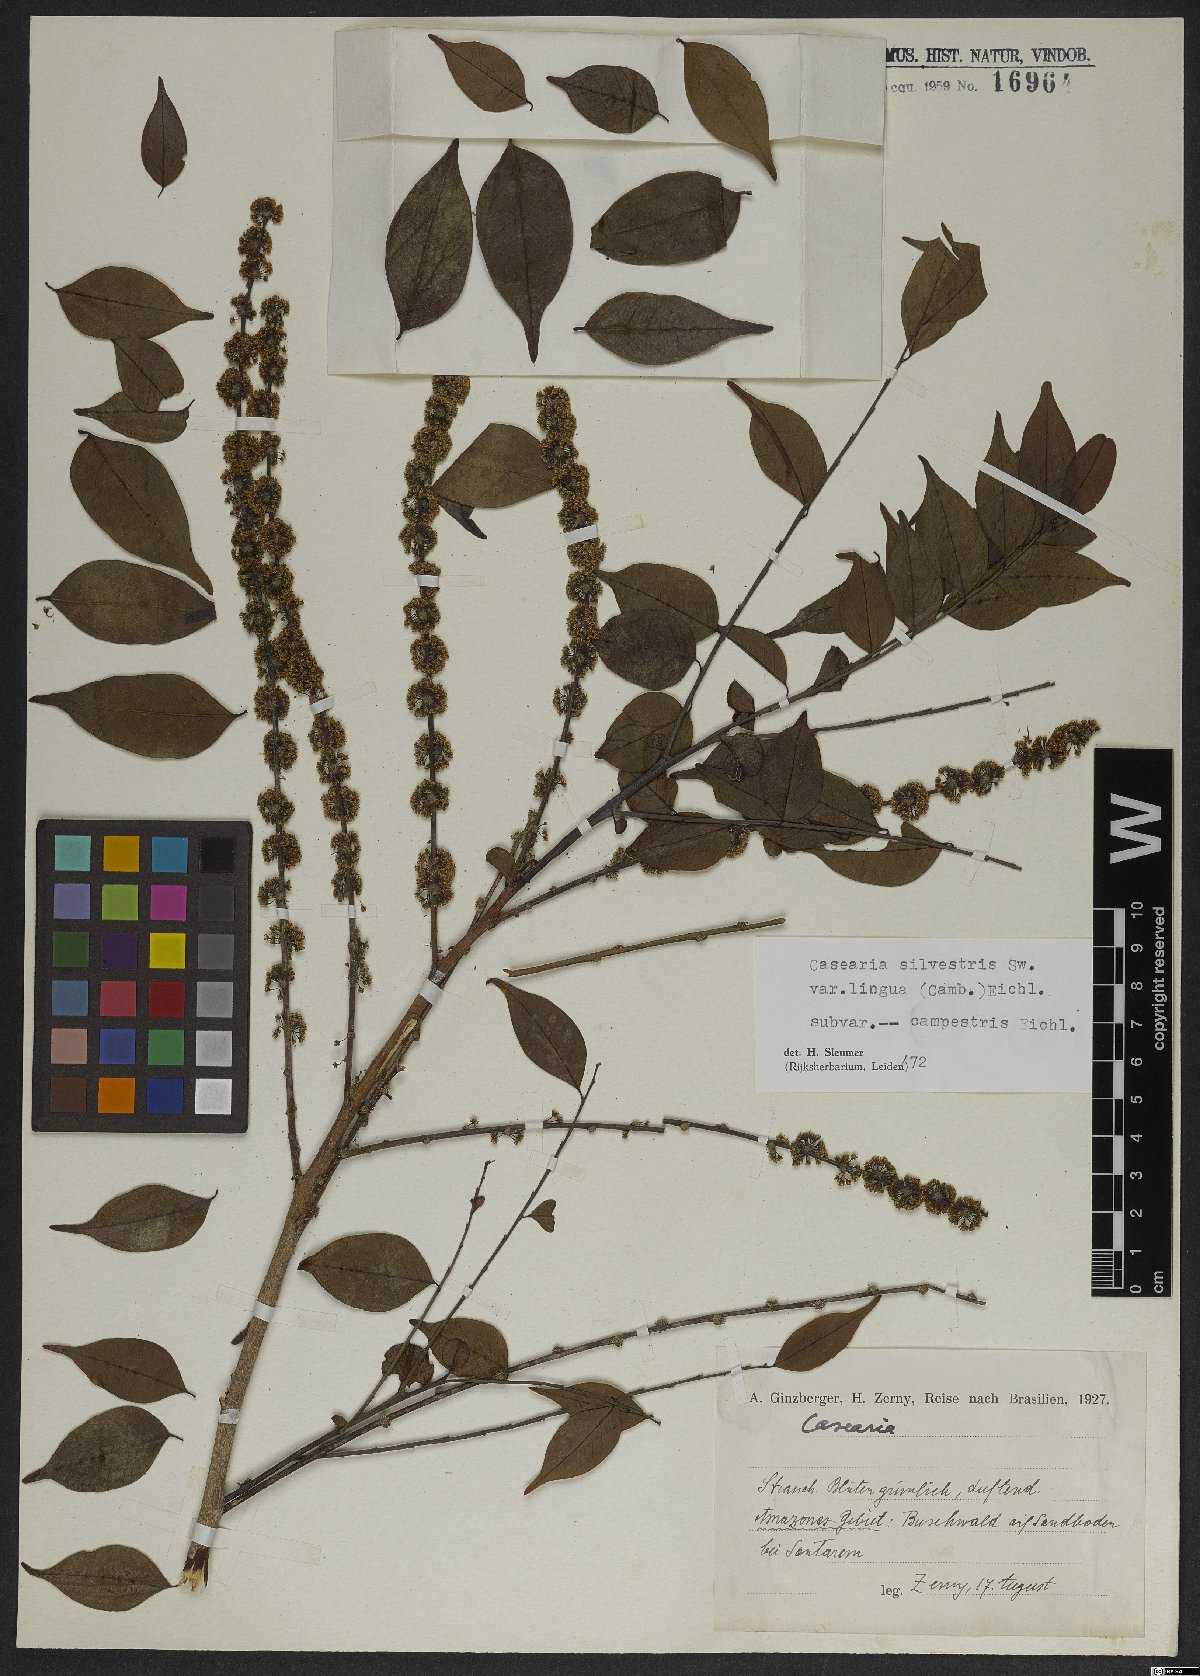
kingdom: Plantae
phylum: Tracheophyta
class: Magnoliopsida
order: Malpighiales
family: Salicaceae
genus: Casearia
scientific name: Casearia sylvestris
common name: Wild sage
